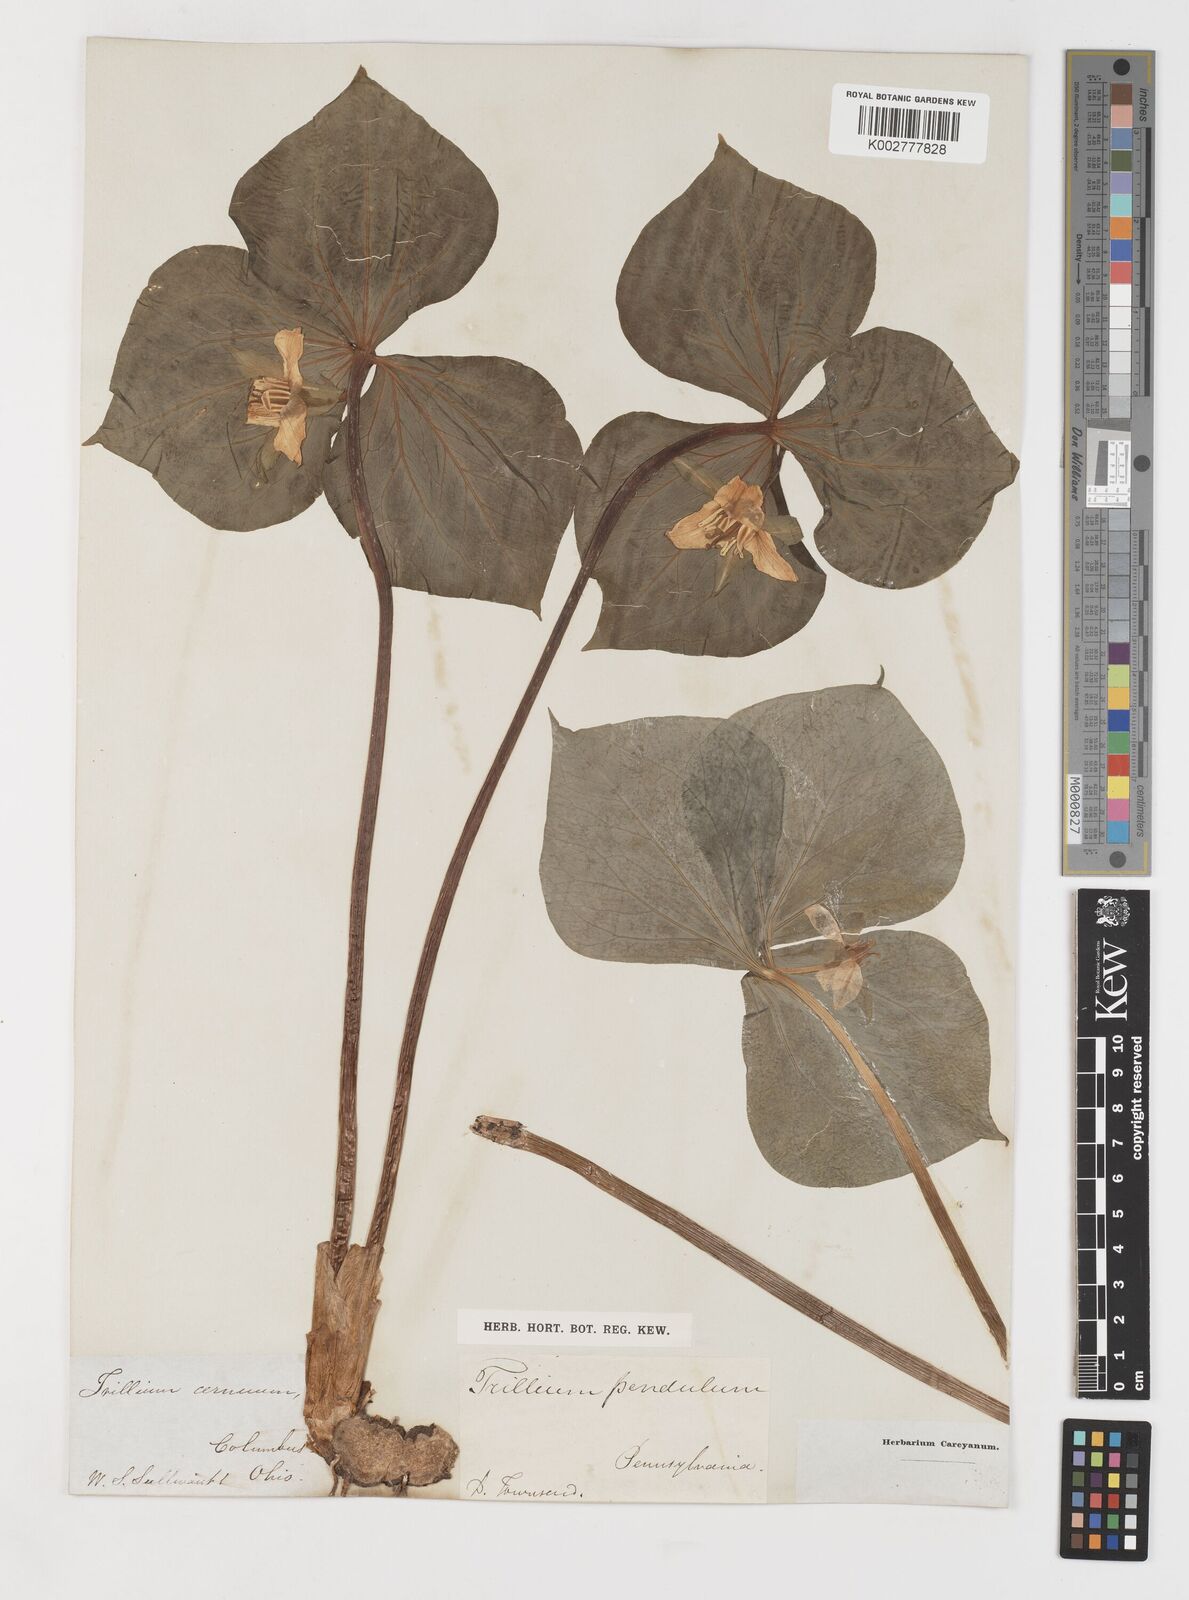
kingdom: Plantae
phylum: Tracheophyta
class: Liliopsida
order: Liliales
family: Melanthiaceae
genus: Trillium
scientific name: Trillium cernuum
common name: Nodding trillium
